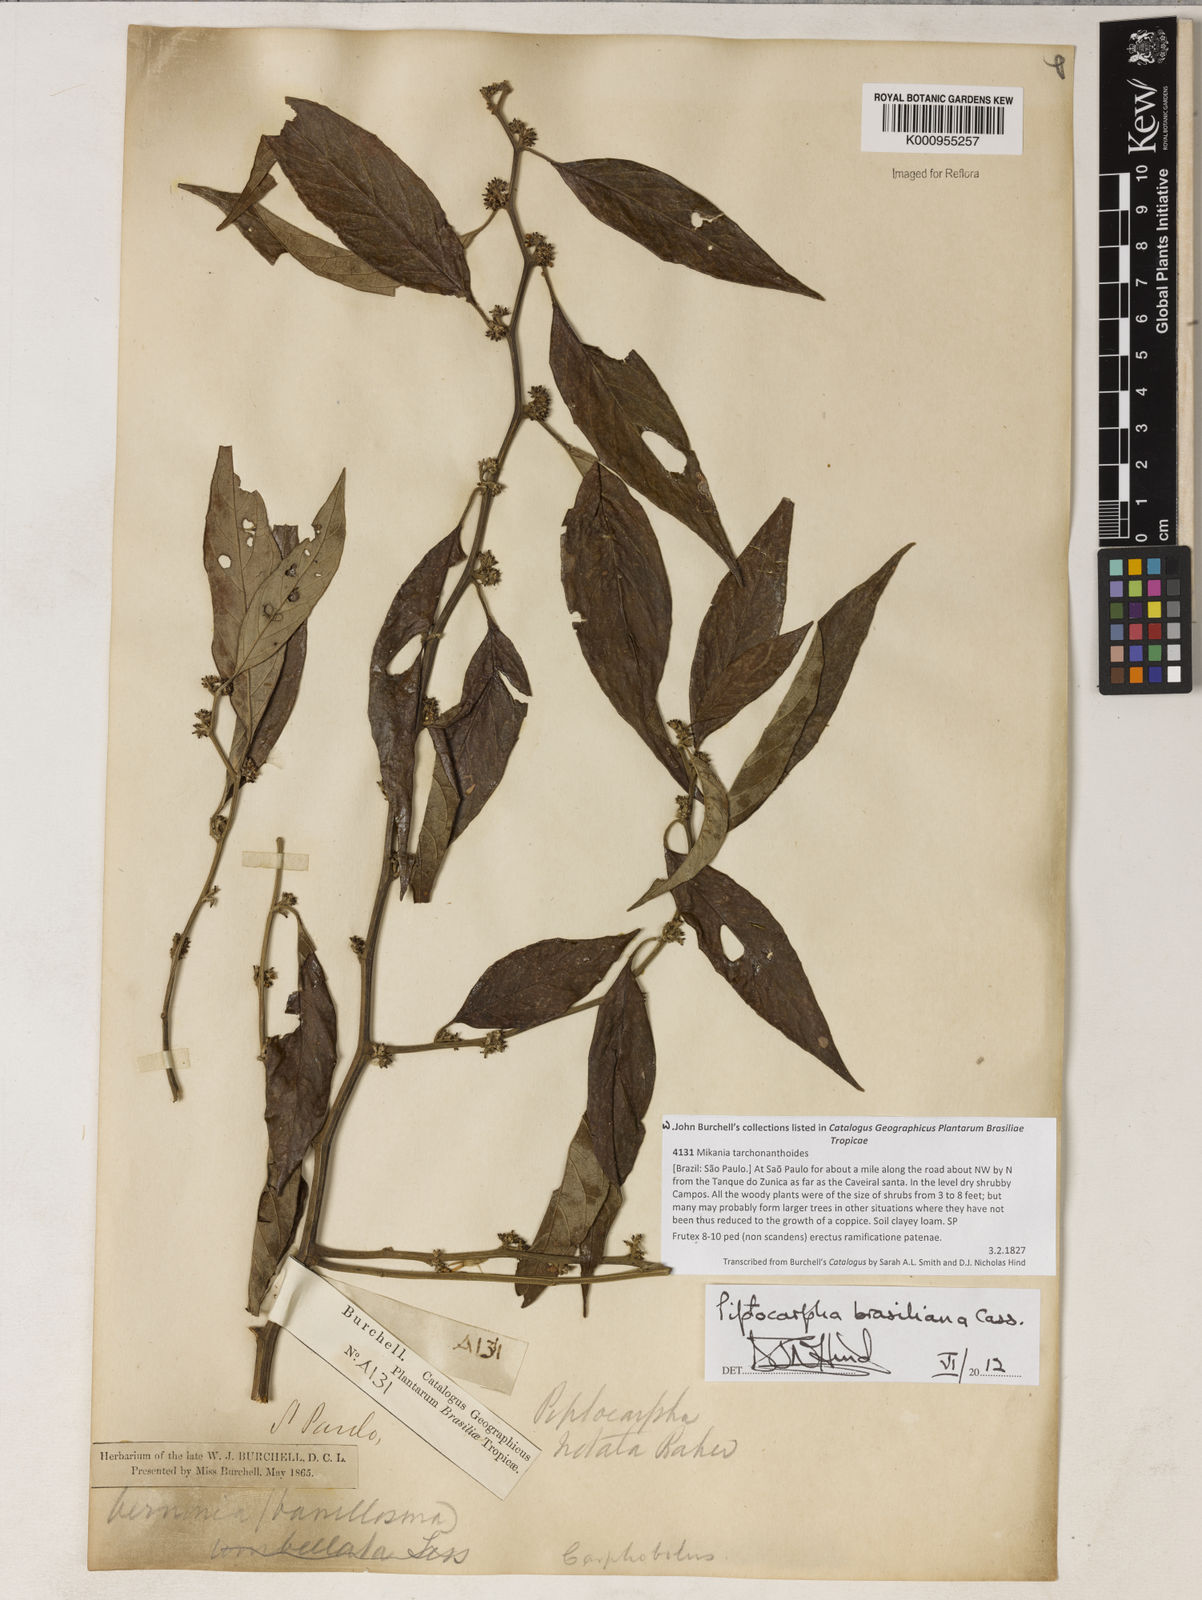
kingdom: Plantae
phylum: Tracheophyta
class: Magnoliopsida
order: Asterales
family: Asteraceae
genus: Piptocarpha
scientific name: Piptocarpha brasiliana
